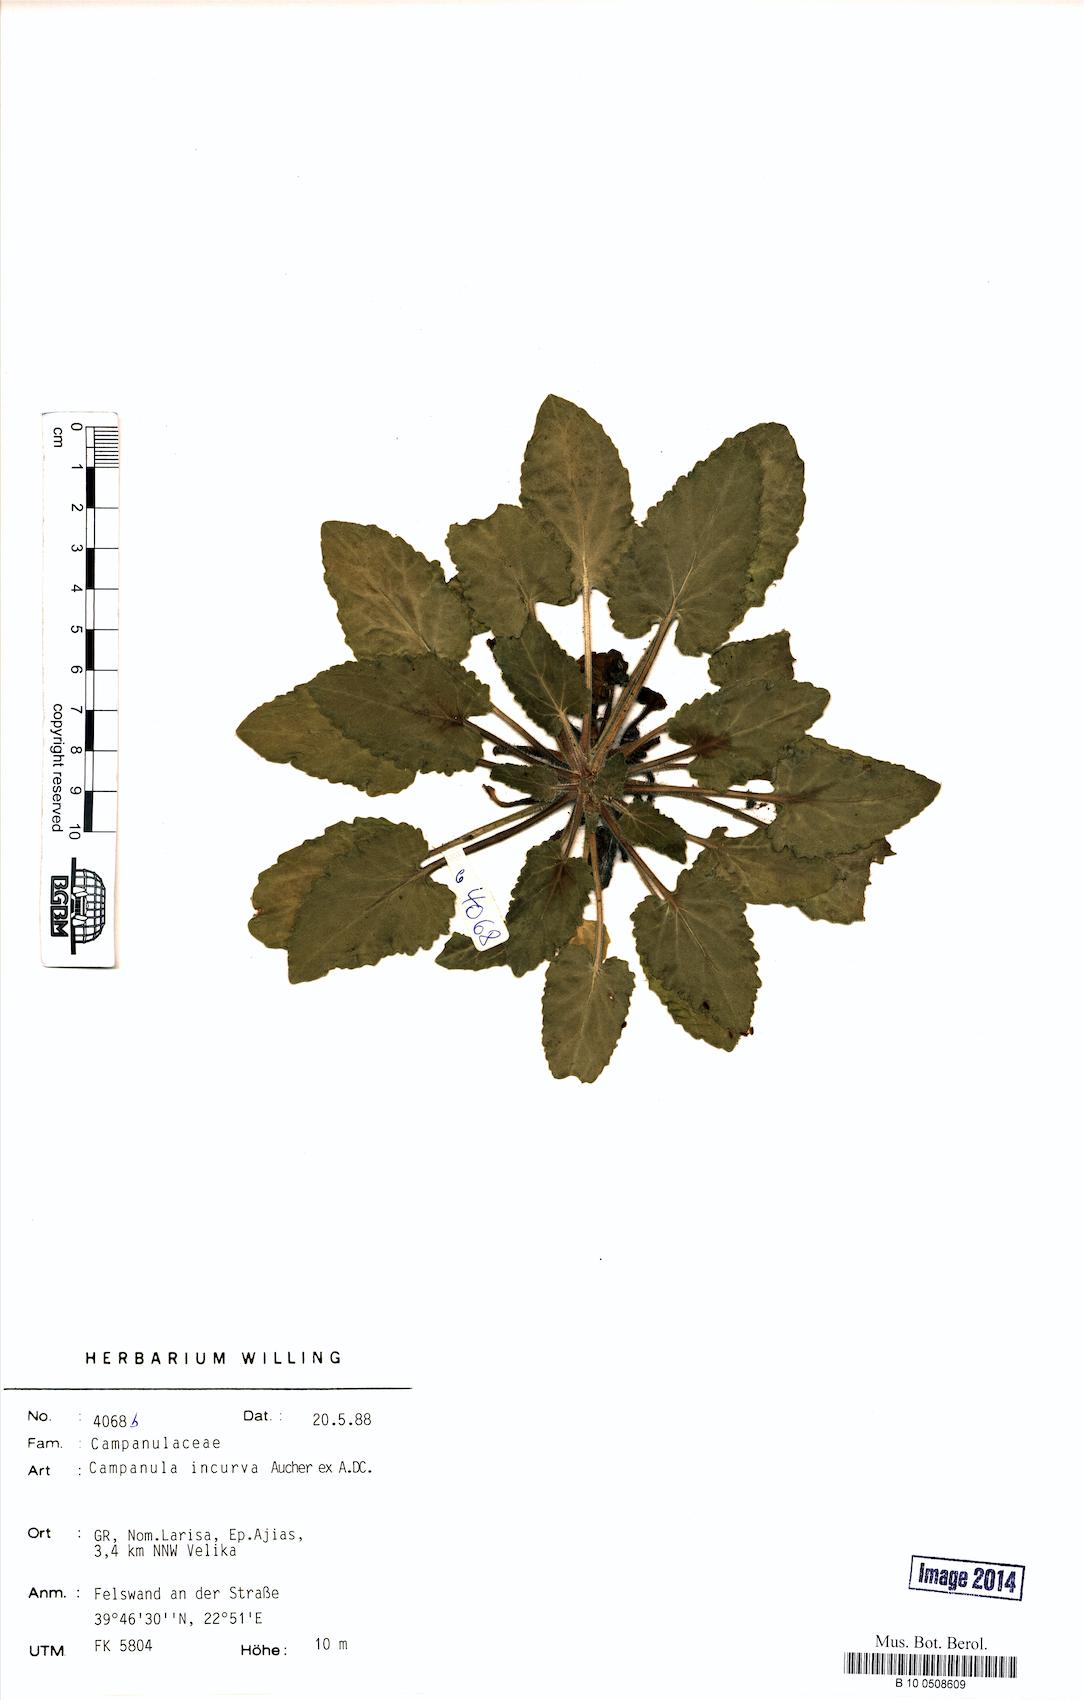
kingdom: Plantae
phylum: Tracheophyta
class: Magnoliopsida
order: Asterales
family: Campanulaceae
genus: Campanula
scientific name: Campanula incurva
